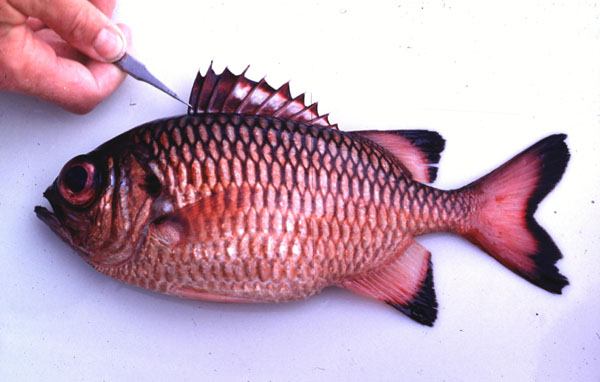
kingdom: Animalia
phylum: Chordata
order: Beryciformes
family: Holocentridae
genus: Myripristis
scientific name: Myripristis adusta
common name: Blackfin soldierfish
